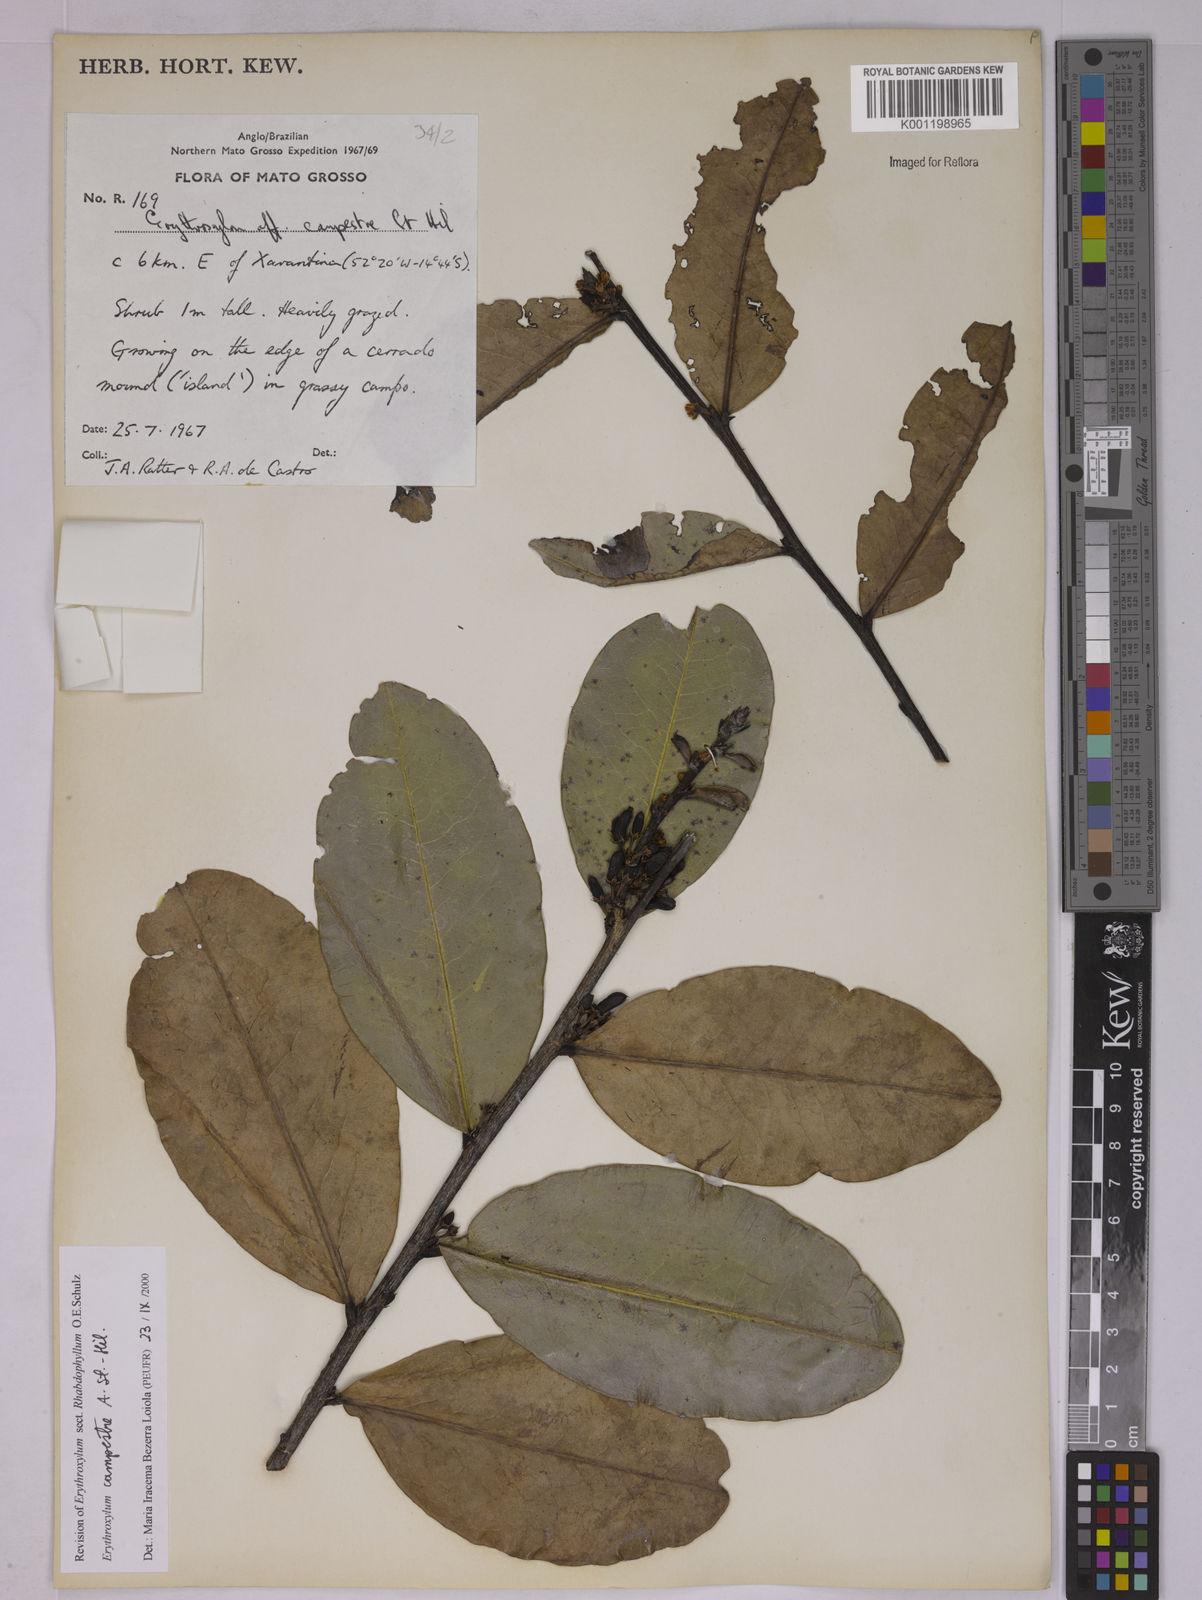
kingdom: Plantae
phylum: Tracheophyta
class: Magnoliopsida
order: Malpighiales
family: Erythroxylaceae
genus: Erythroxylum
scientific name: Erythroxylum campestre
